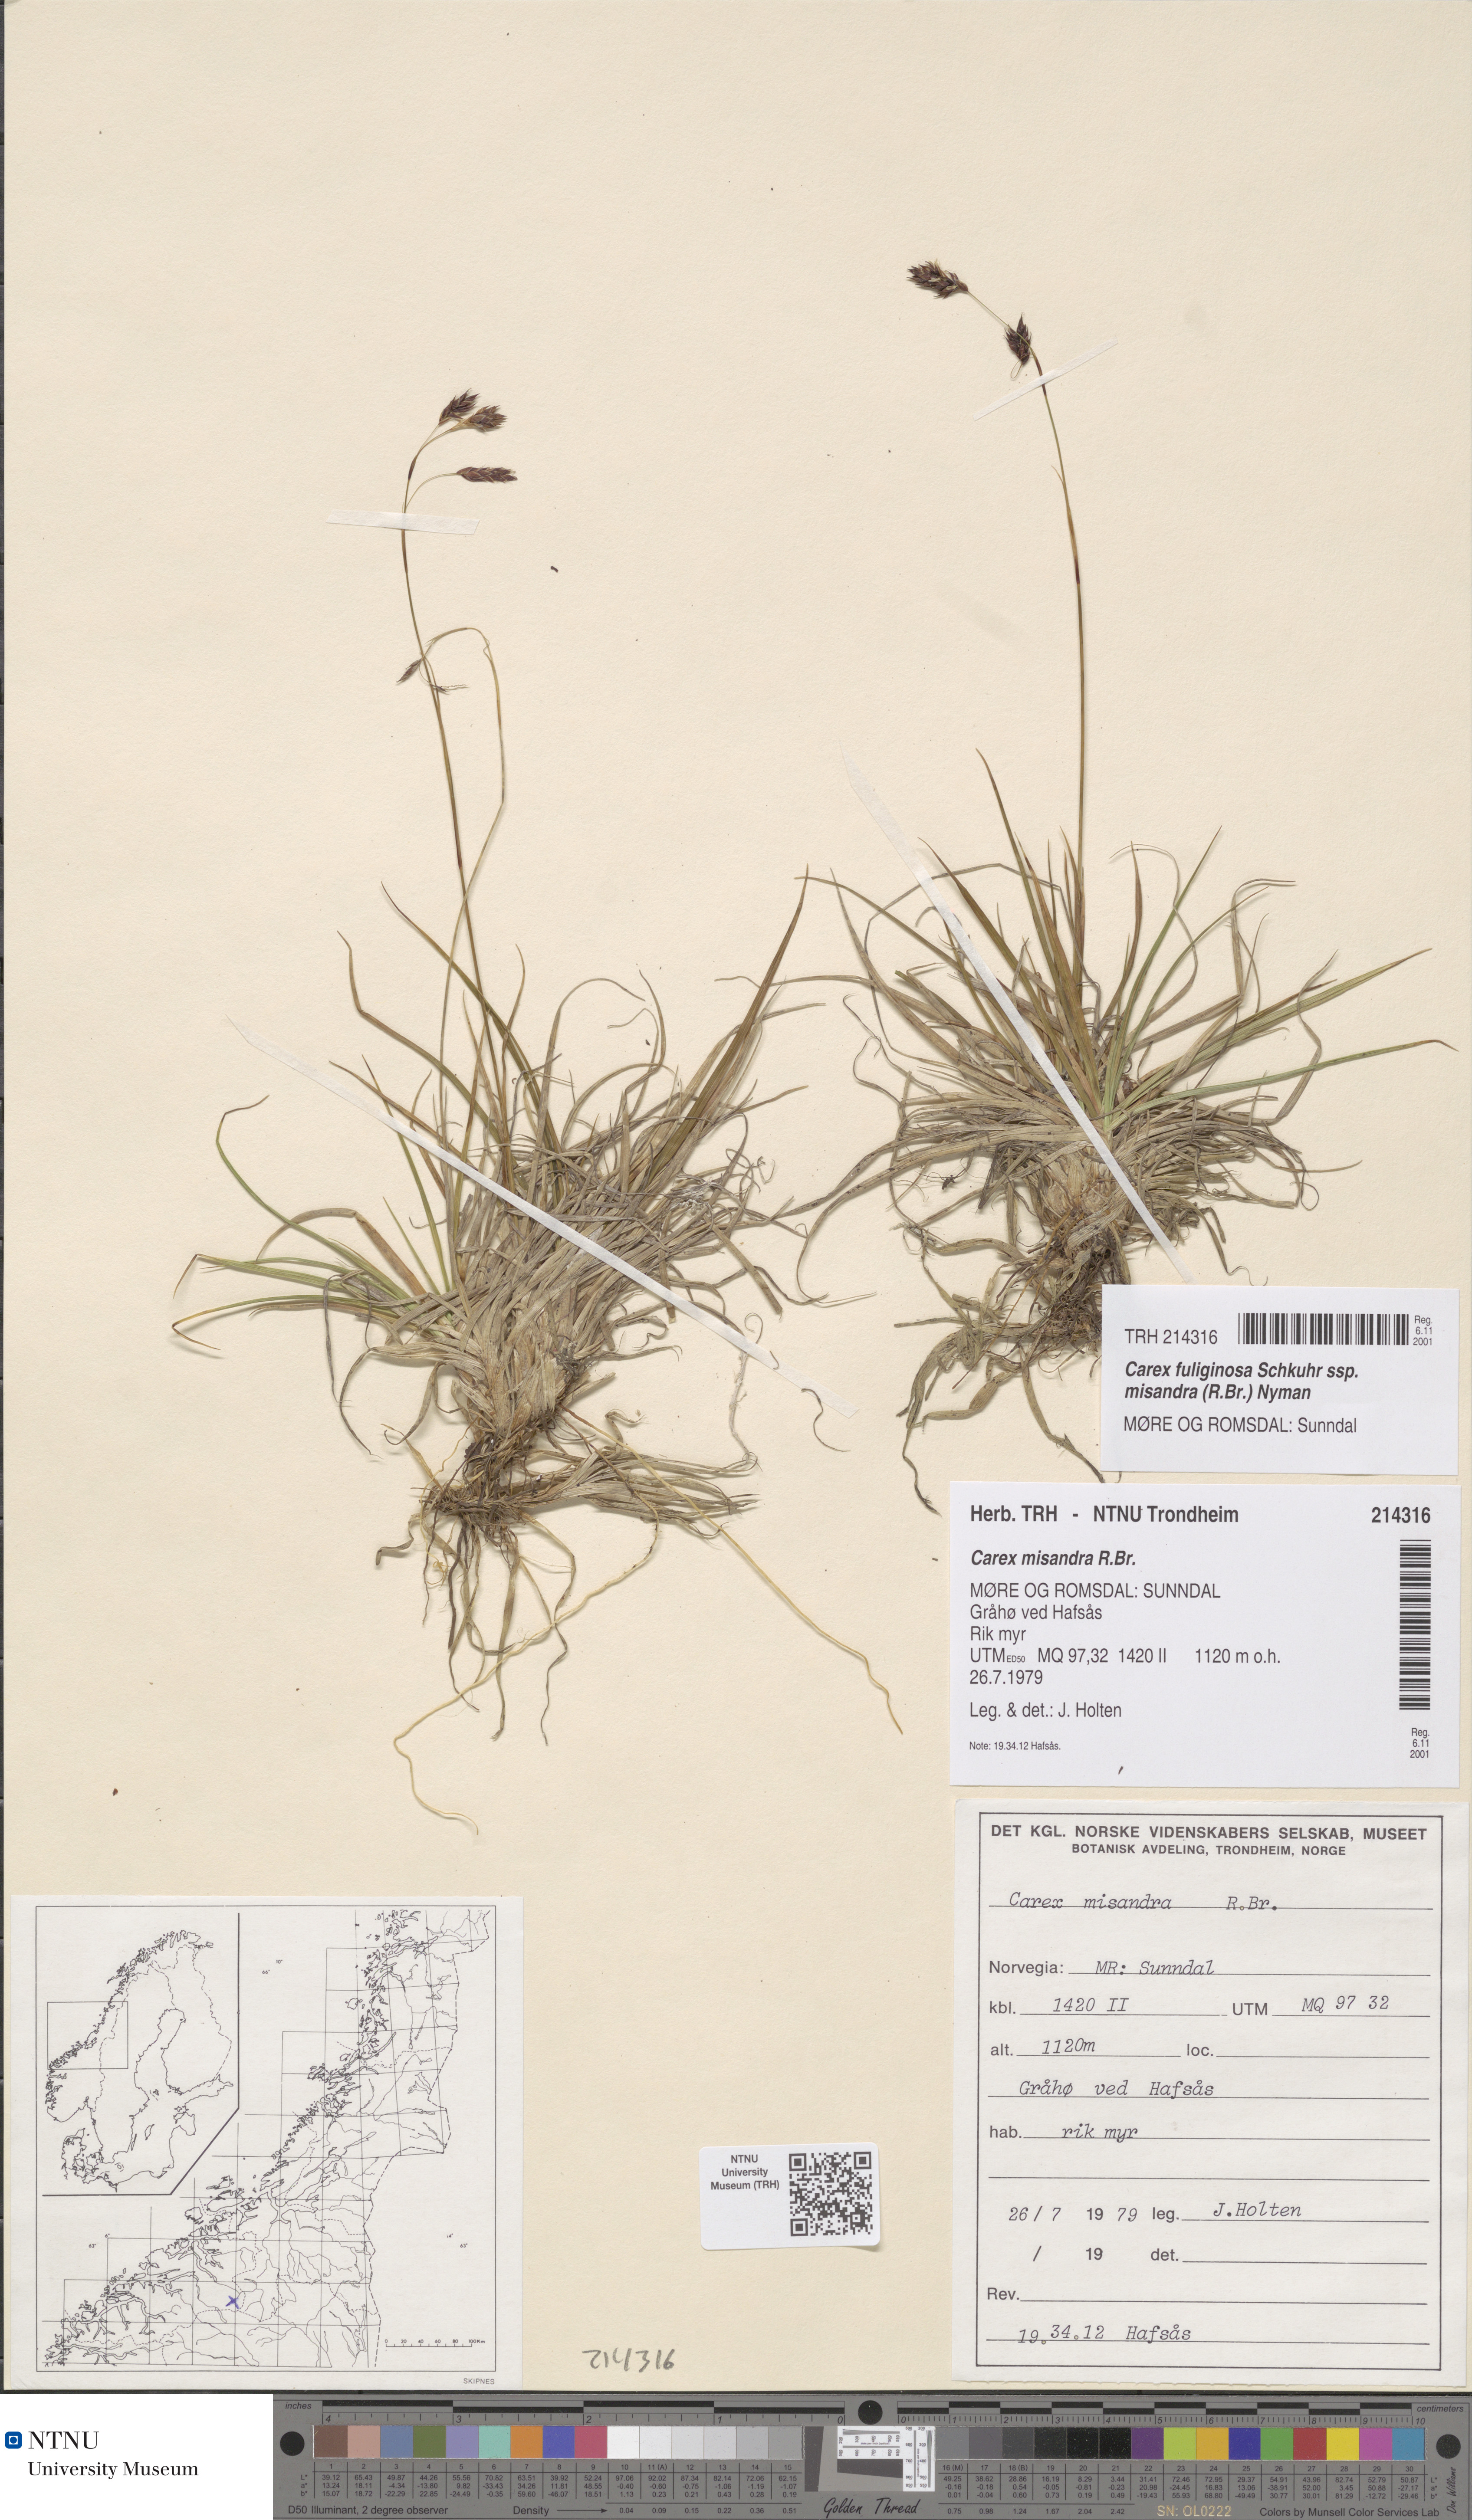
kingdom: Plantae
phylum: Tracheophyta
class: Liliopsida
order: Poales
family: Cyperaceae
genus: Carex
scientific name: Carex fuliginosa
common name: Few-flowered sedge
